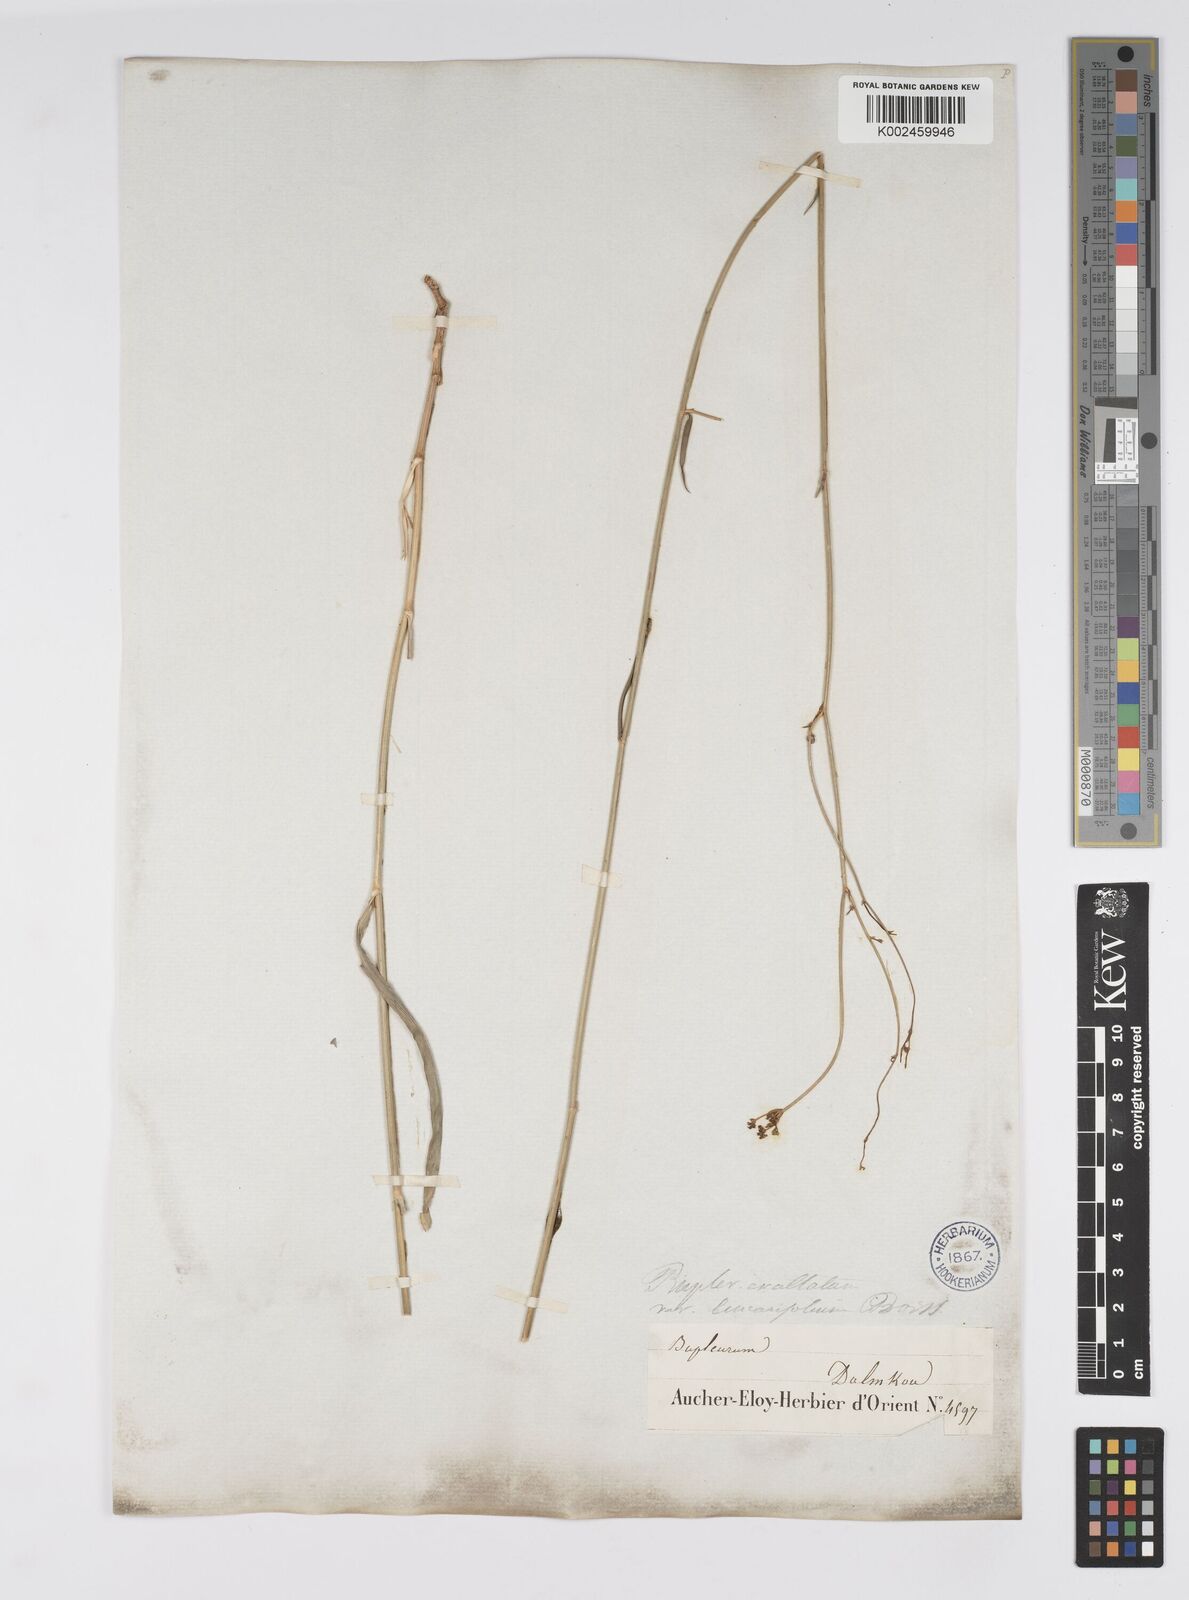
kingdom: Plantae
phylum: Tracheophyta
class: Magnoliopsida
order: Apiales
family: Apiaceae
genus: Bupleurum
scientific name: Bupleurum falcatum
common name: Sickle-leaved hare's-ear
